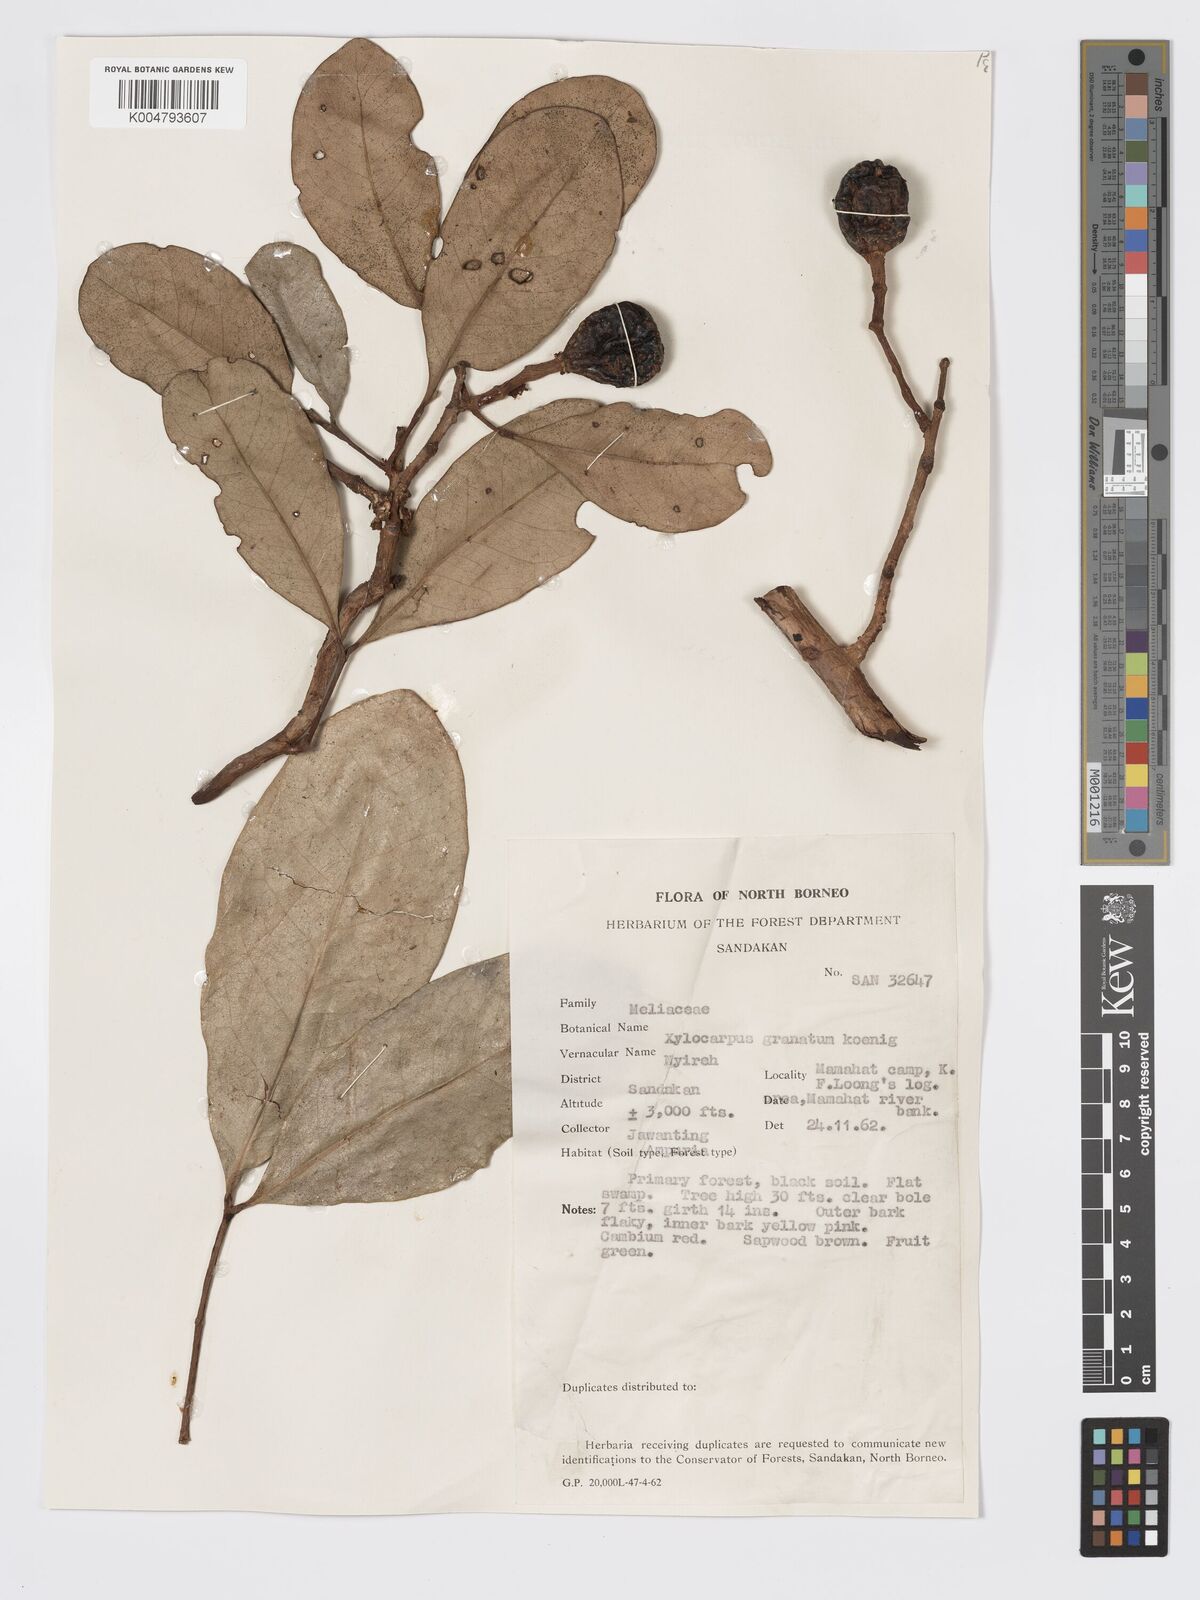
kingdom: Plantae
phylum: Tracheophyta
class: Magnoliopsida
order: Sapindales
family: Meliaceae
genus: Xylocarpus
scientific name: Xylocarpus granatum
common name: Apple mangrove
